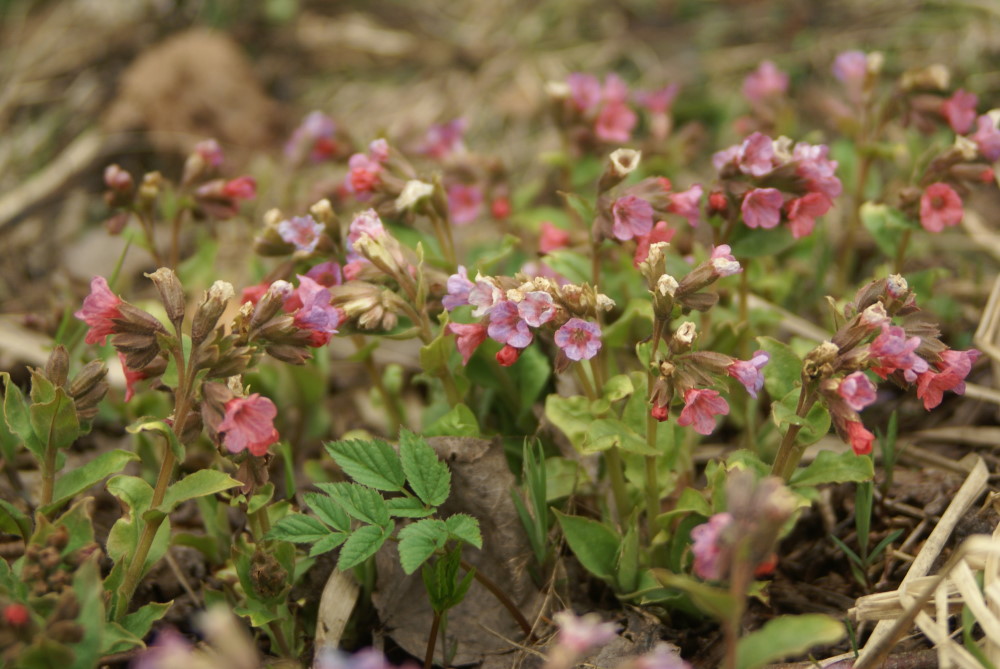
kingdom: Plantae
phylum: Tracheophyta
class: Magnoliopsida
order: Boraginales
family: Boraginaceae
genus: Pulmonaria
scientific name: Pulmonaria obscura
